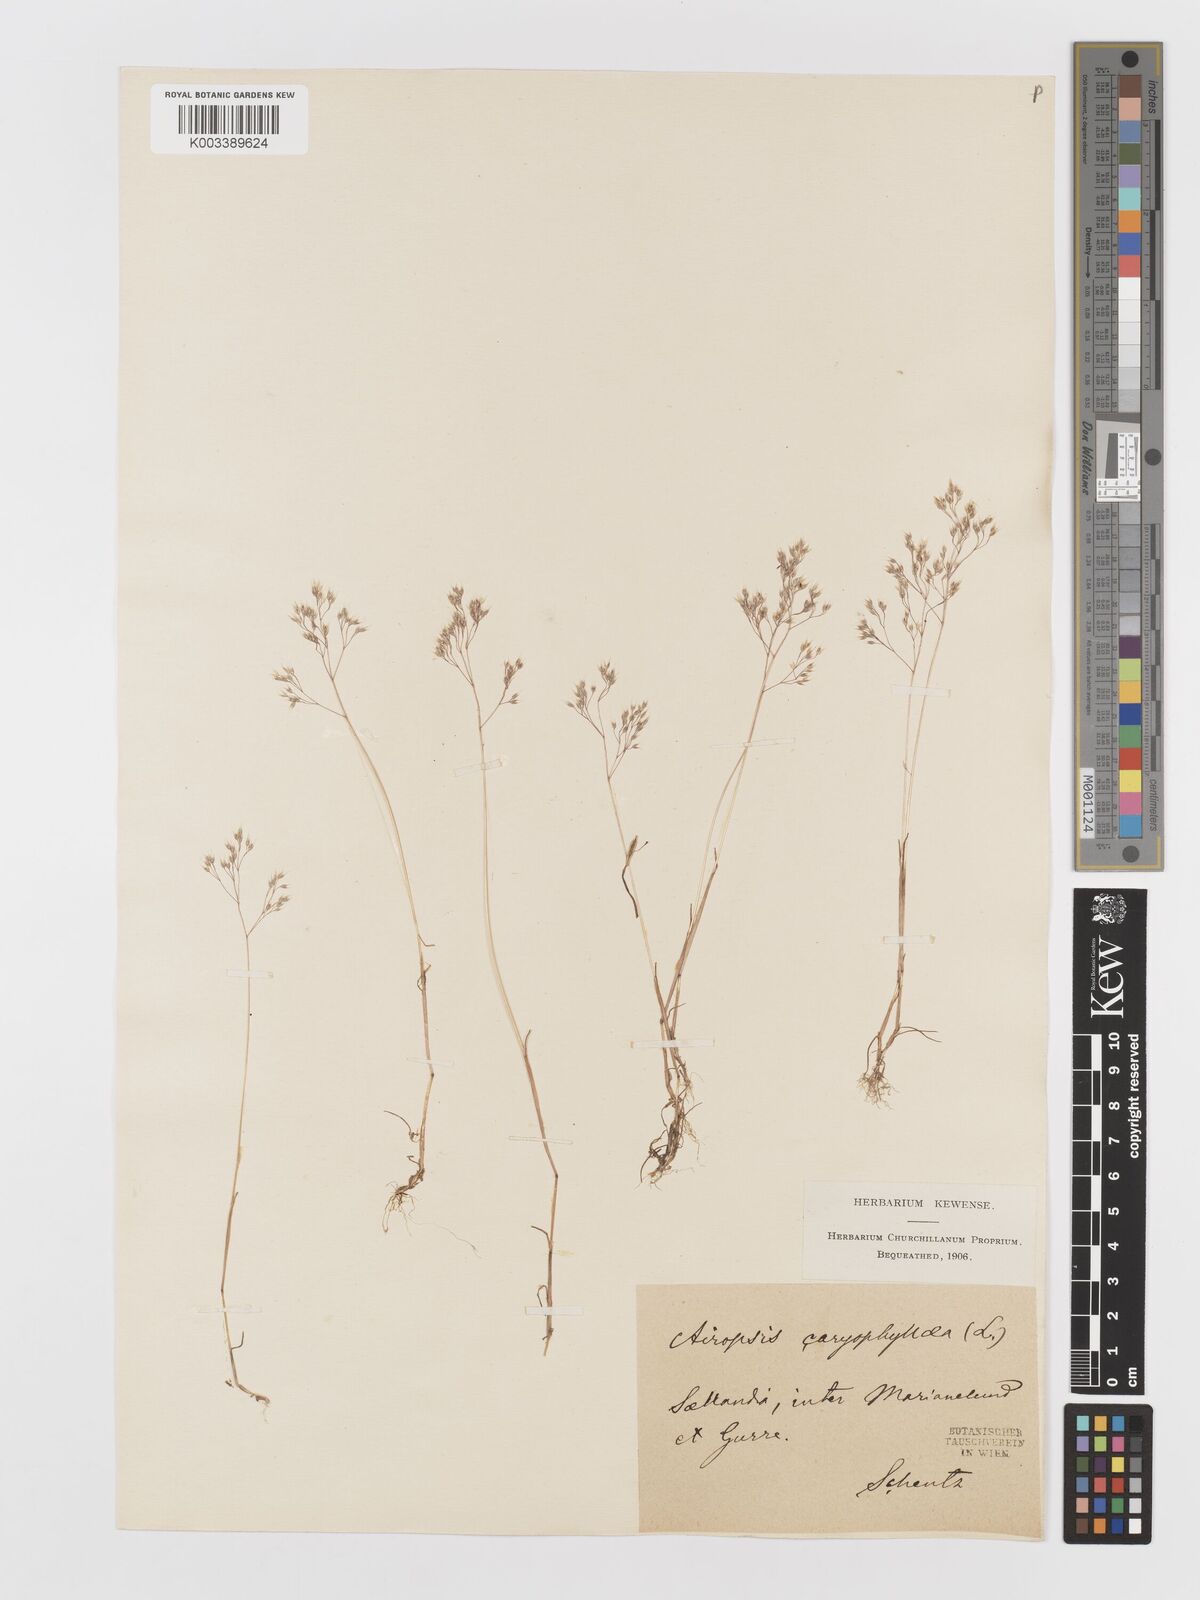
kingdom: Plantae
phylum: Tracheophyta
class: Liliopsida
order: Poales
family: Poaceae
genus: Aira
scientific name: Aira caryophyllea
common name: Silver hairgrass
